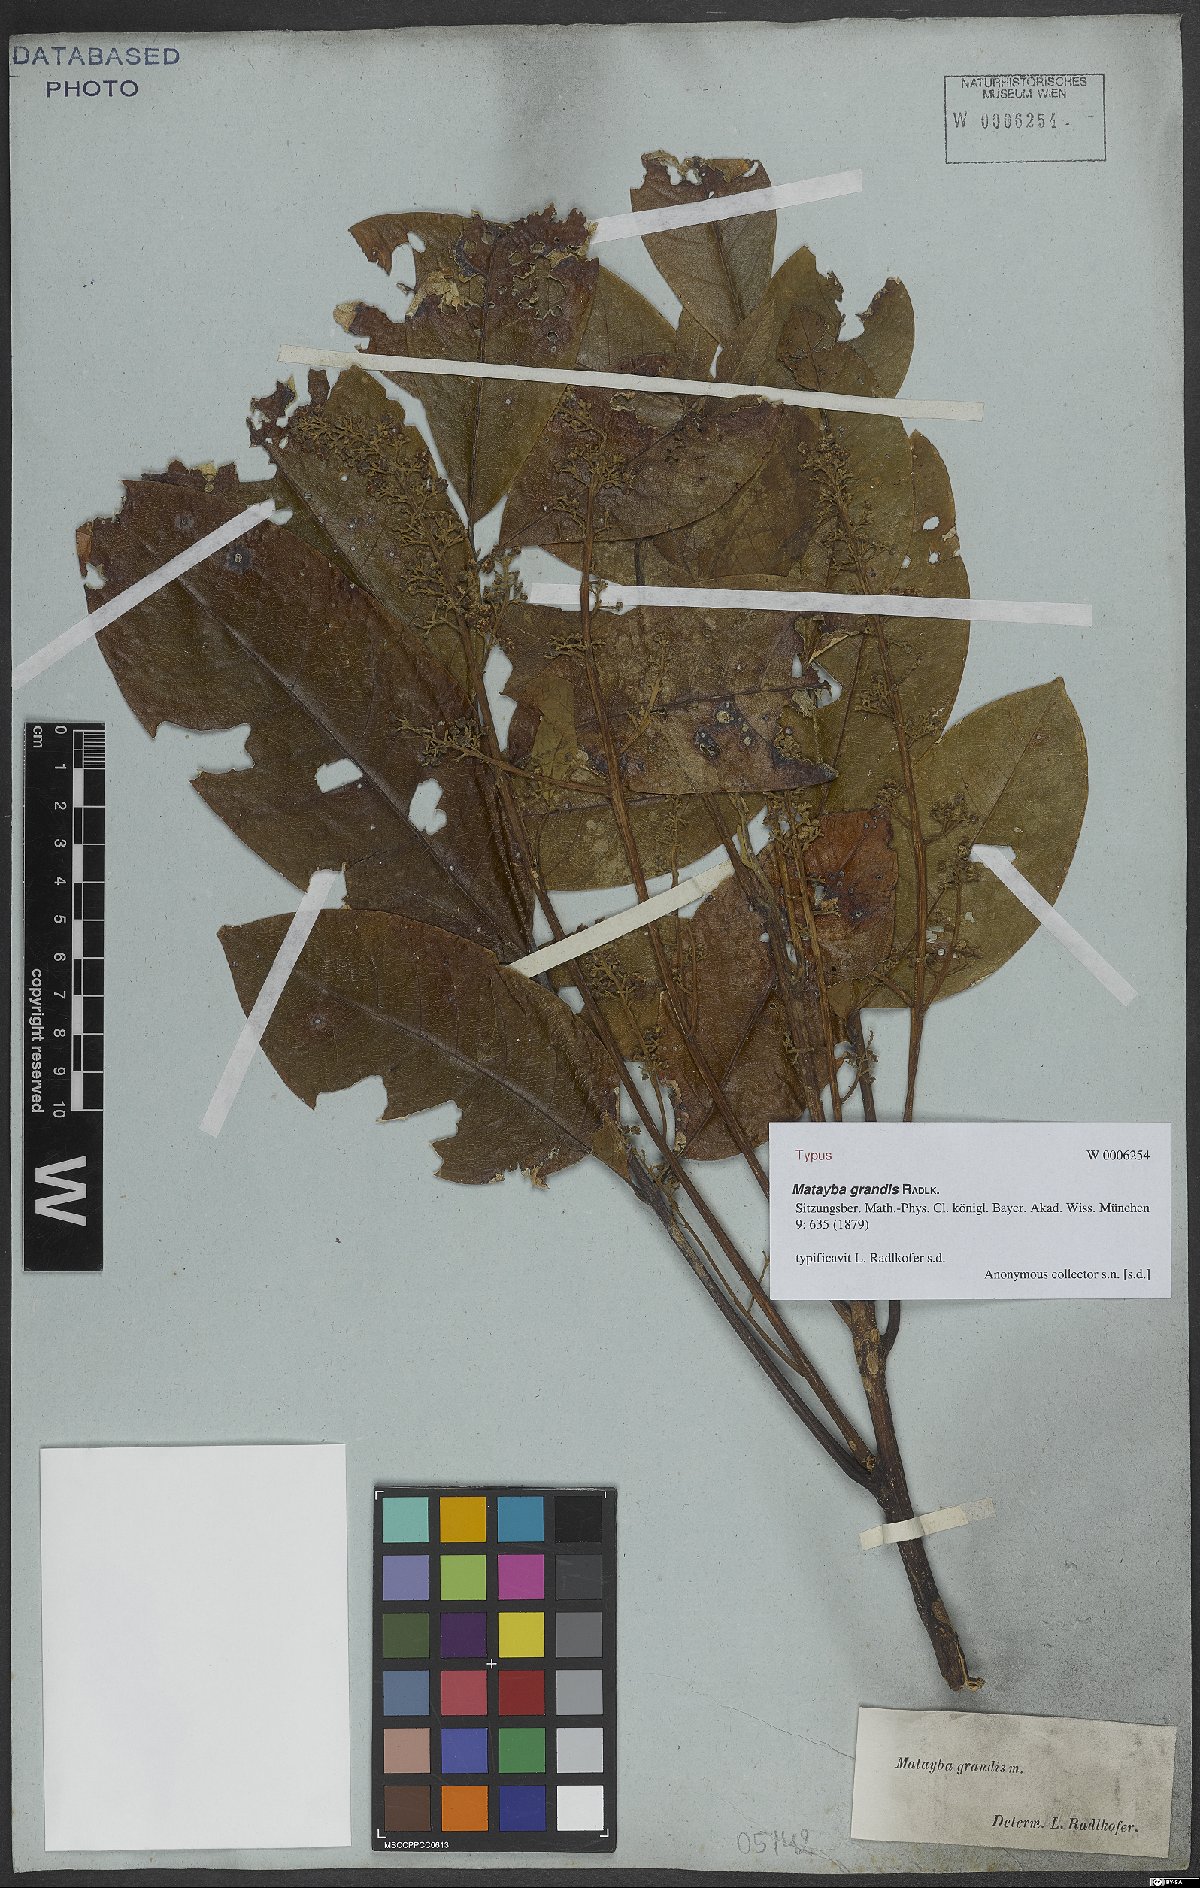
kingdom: Plantae
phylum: Tracheophyta
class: Magnoliopsida
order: Sapindales
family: Sapindaceae
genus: Matayba
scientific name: Matayba grandis
